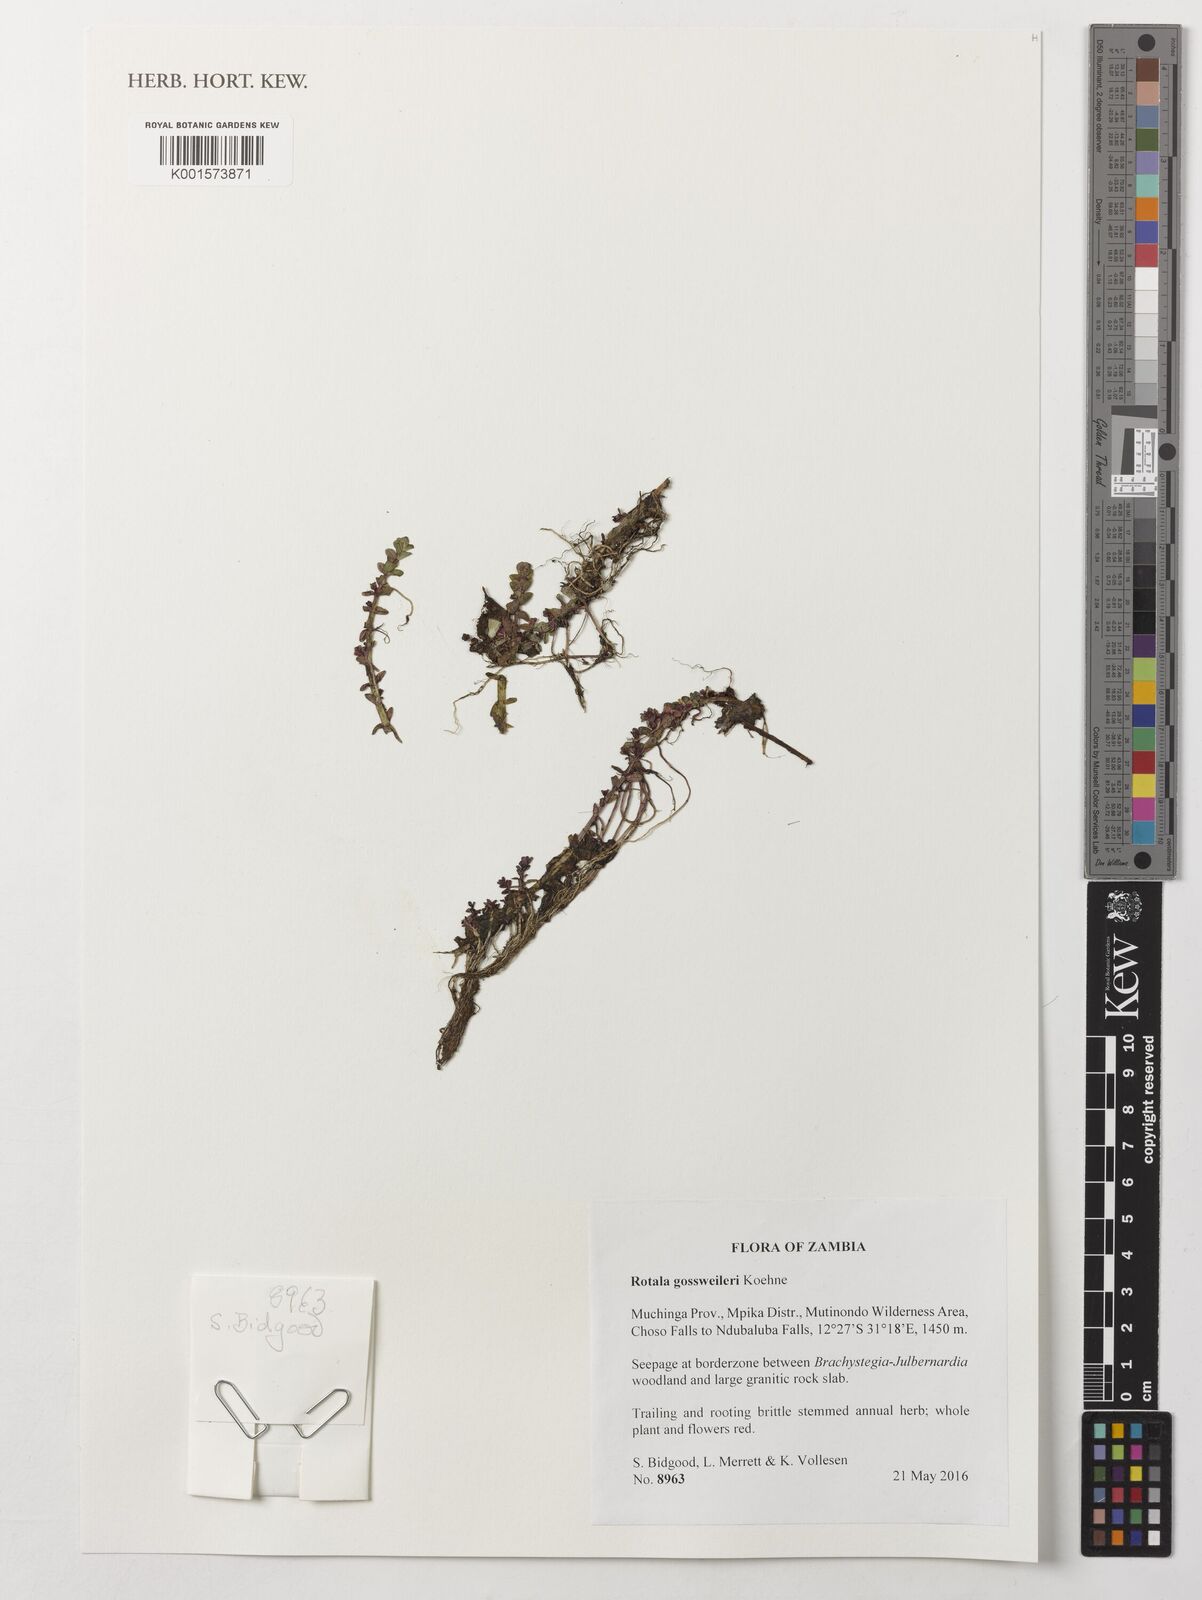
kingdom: Plantae
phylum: Tracheophyta
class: Magnoliopsida
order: Myrtales
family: Lythraceae
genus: Rotala
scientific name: Rotala gossweileri
